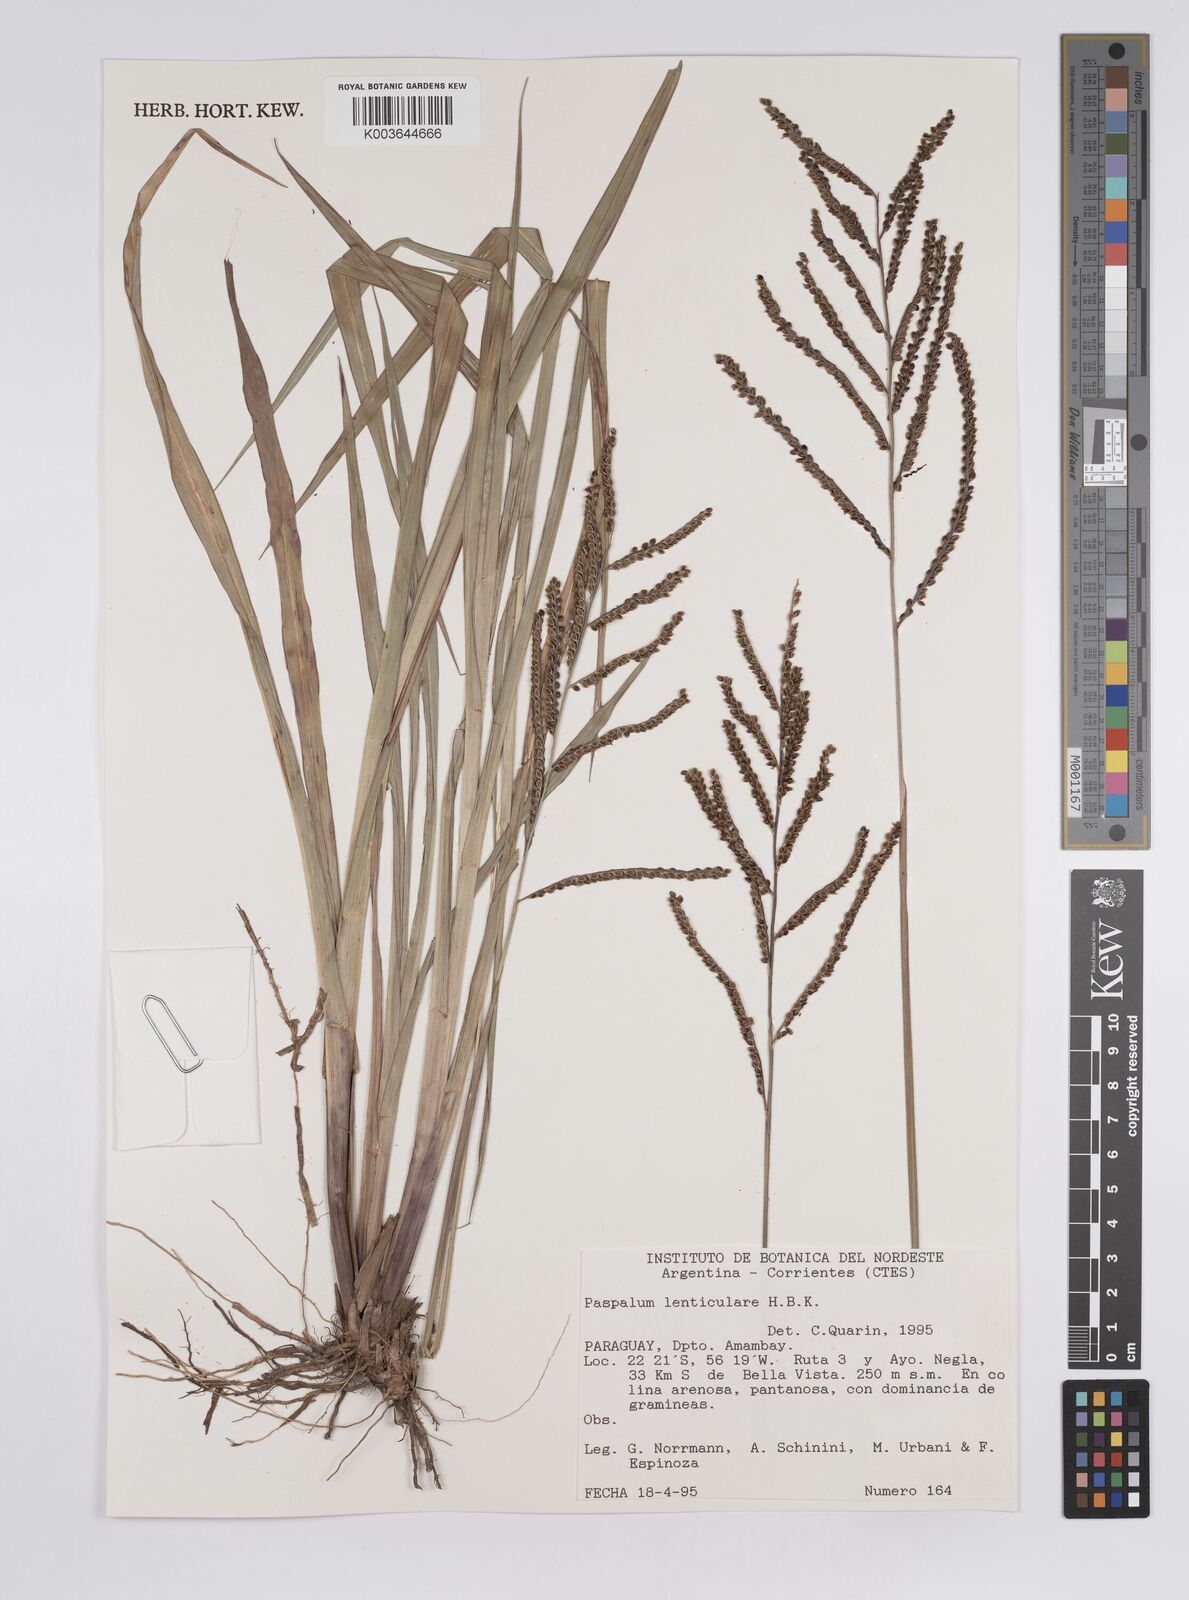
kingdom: Plantae
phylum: Tracheophyta
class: Liliopsida
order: Poales
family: Poaceae
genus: Paspalum
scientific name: Paspalum plicatulum
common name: Top paspalum
